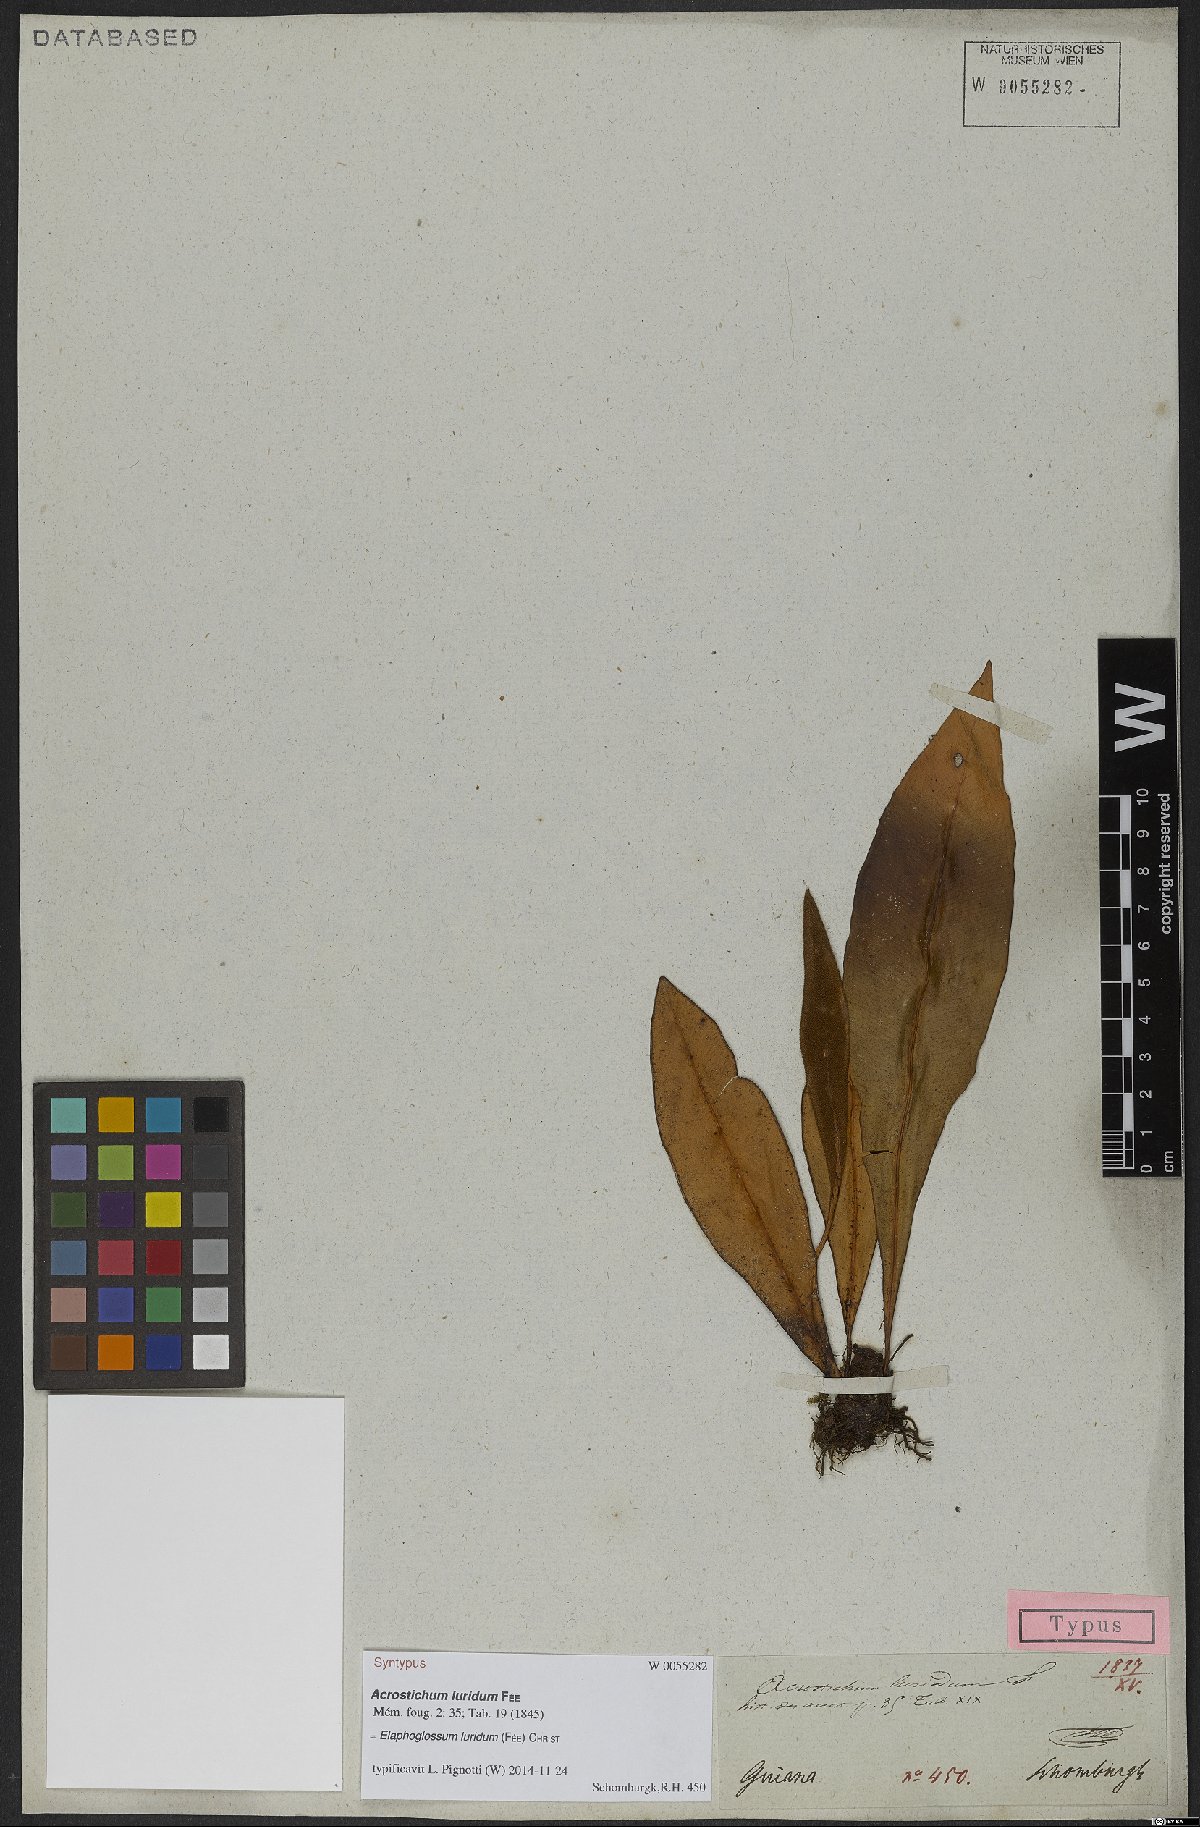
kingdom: Plantae
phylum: Tracheophyta
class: Polypodiopsida
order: Polypodiales
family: Dryopteridaceae
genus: Elaphoglossum
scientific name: Elaphoglossum luridum
